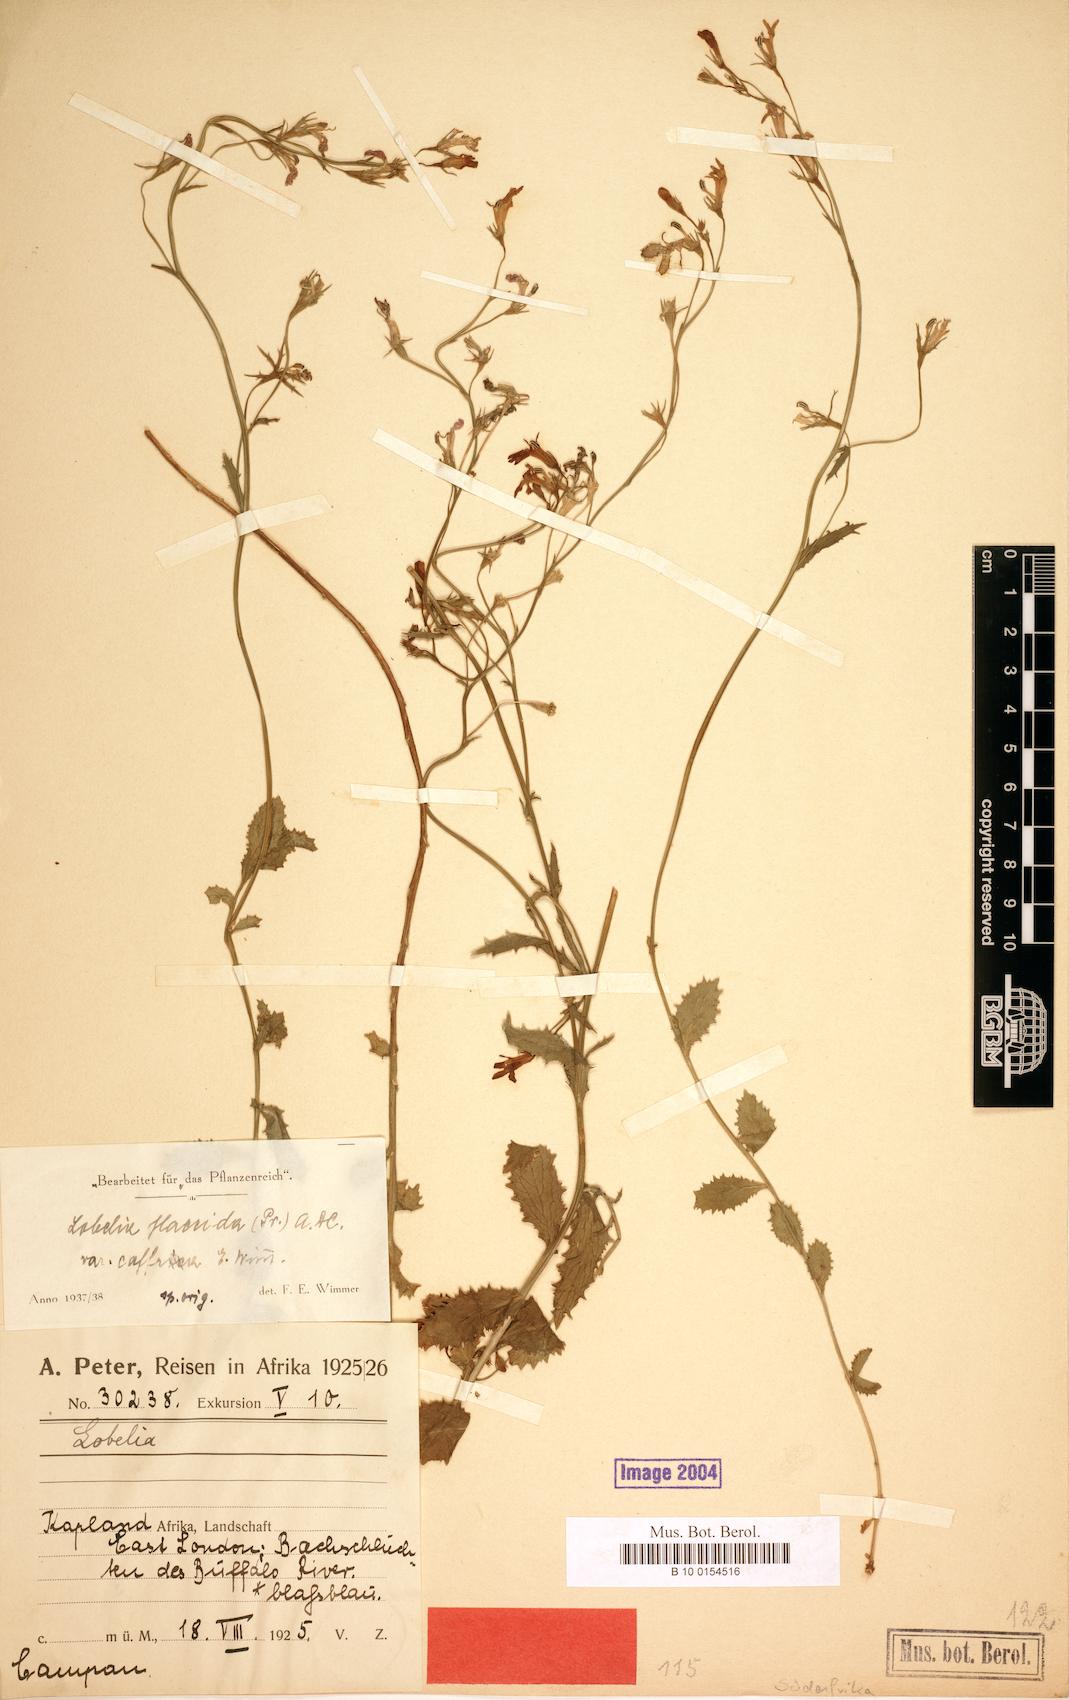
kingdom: Plantae
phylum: Tracheophyta
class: Magnoliopsida
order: Asterales
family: Campanulaceae
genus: Lobelia
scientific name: Lobelia flaccida
